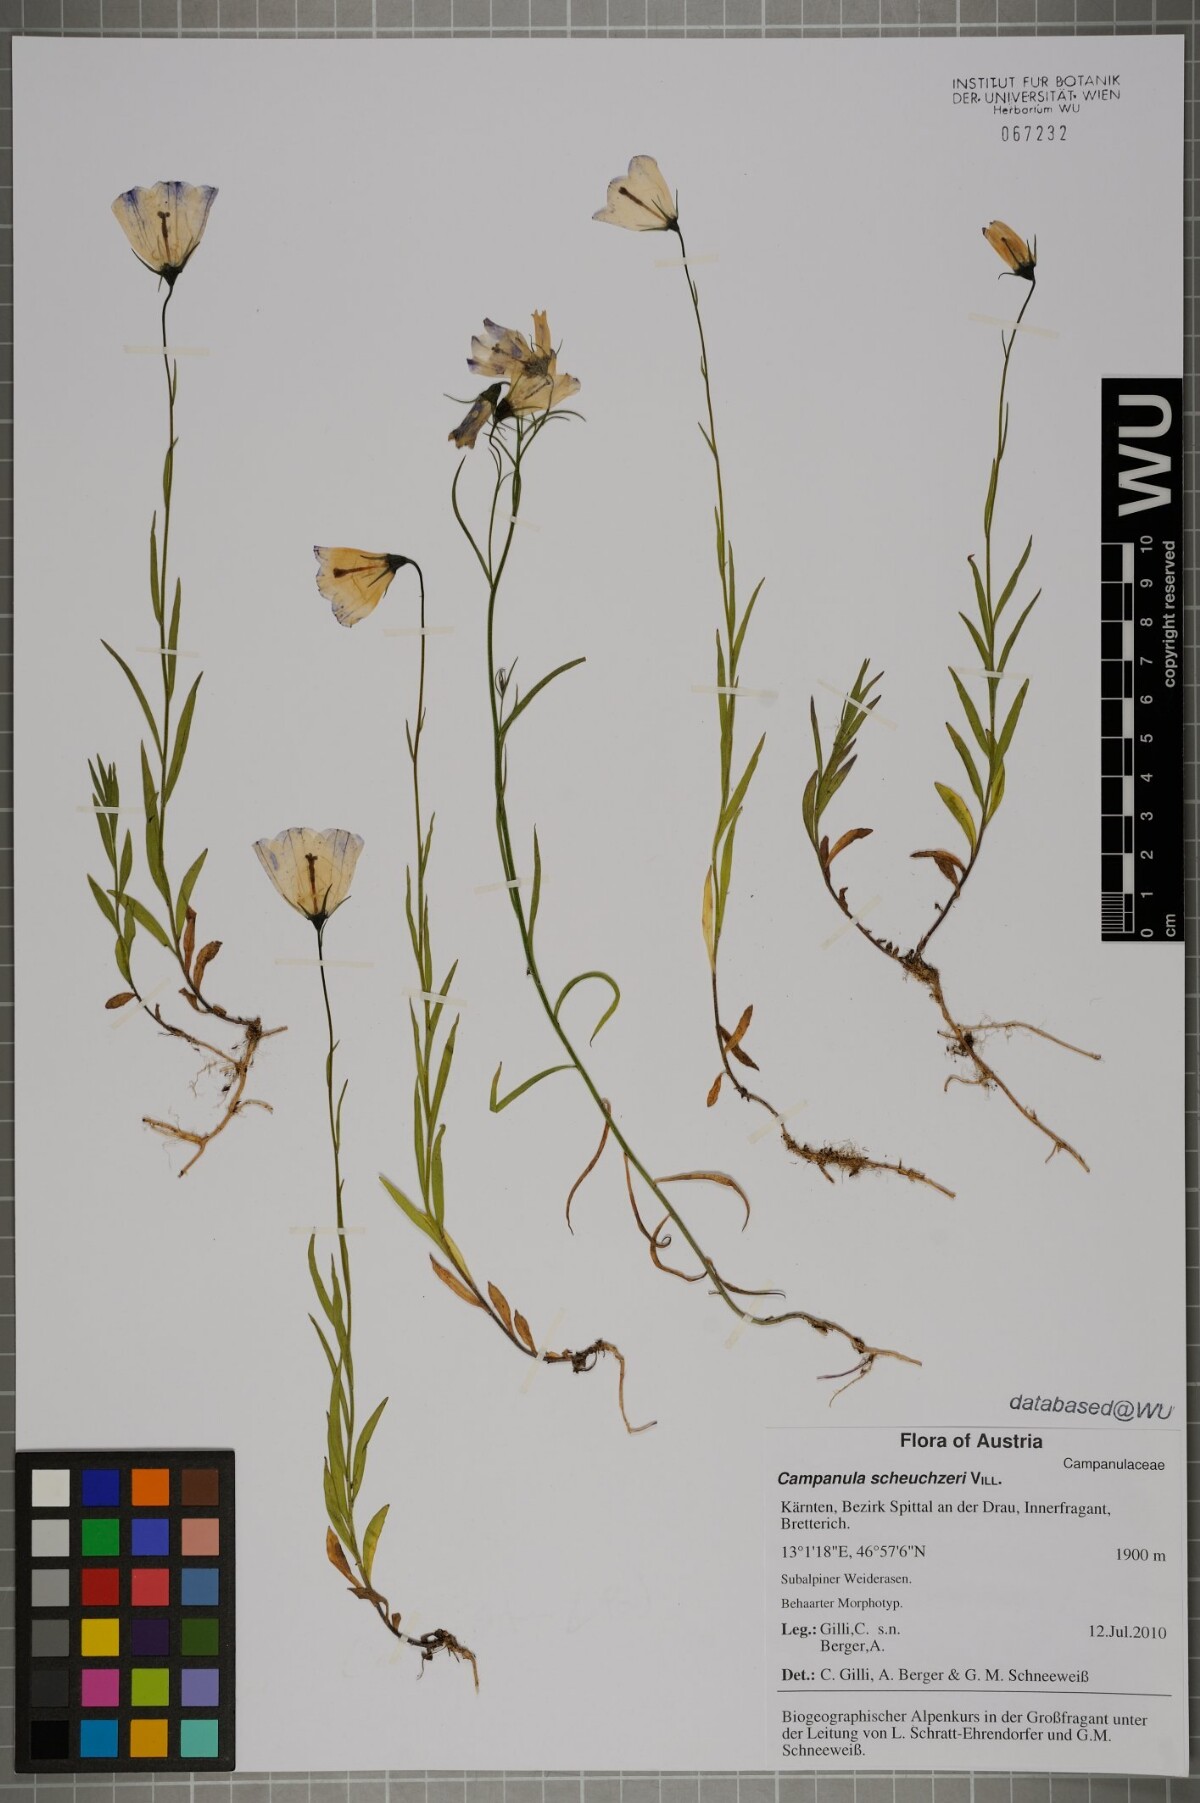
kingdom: Plantae
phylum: Tracheophyta
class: Magnoliopsida
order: Asterales
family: Campanulaceae
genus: Campanula
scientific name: Campanula scheuchzeri
